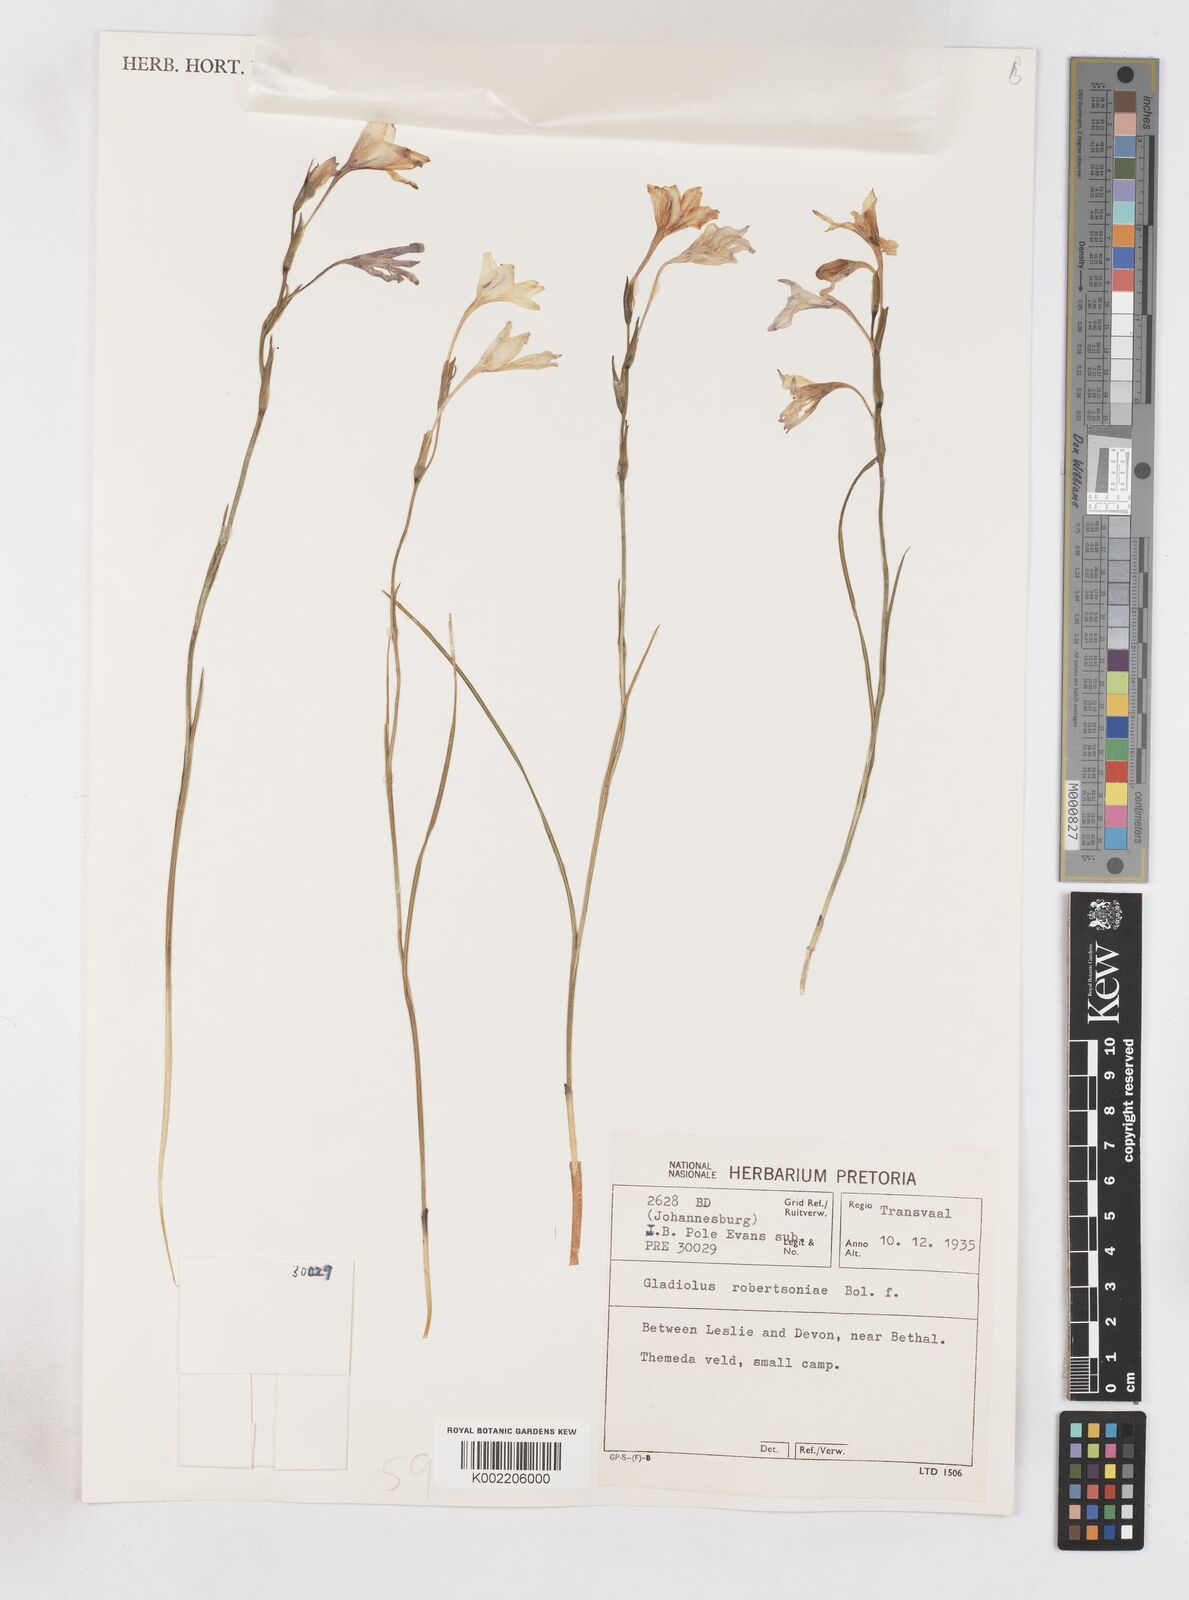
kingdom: Plantae
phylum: Tracheophyta
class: Liliopsida
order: Asparagales
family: Iridaceae
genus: Gladiolus
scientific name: Gladiolus robertsoniae
